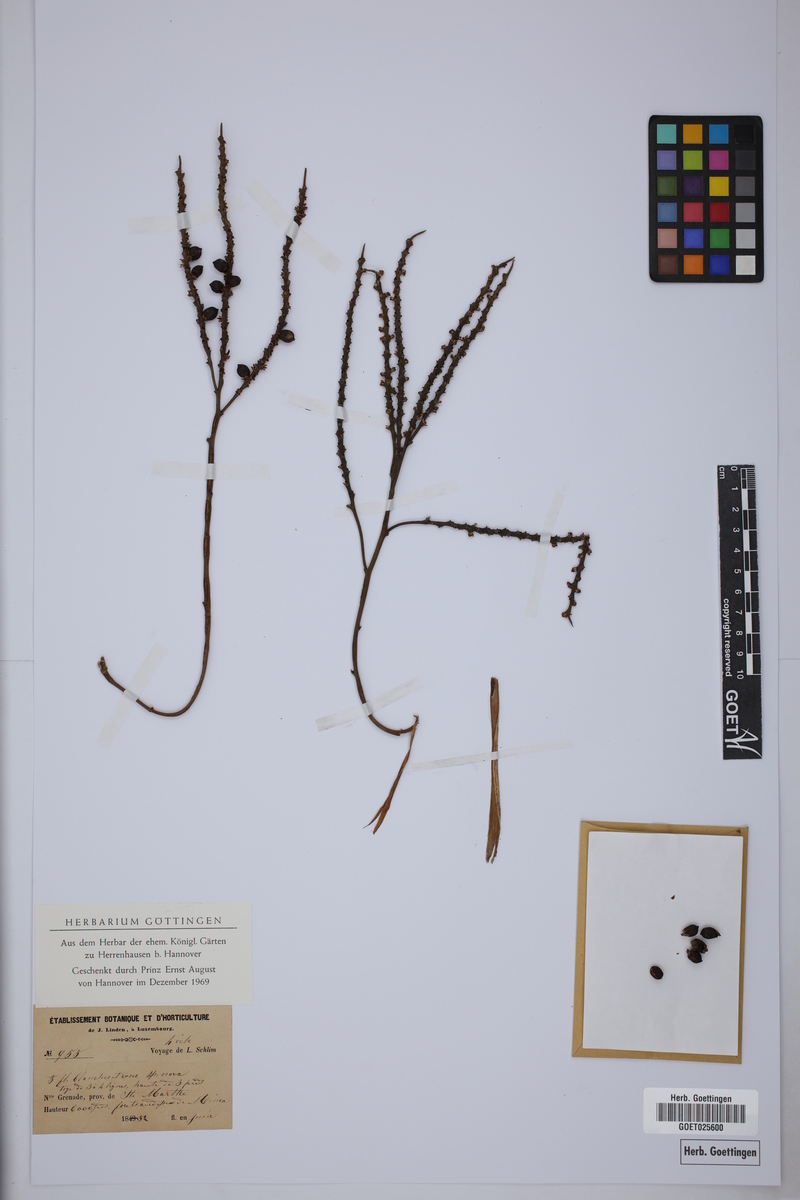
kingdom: Plantae
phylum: Tracheophyta
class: Liliopsida
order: Arecales
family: Arecaceae
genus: Geonoma
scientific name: Geonoma orbignyana
